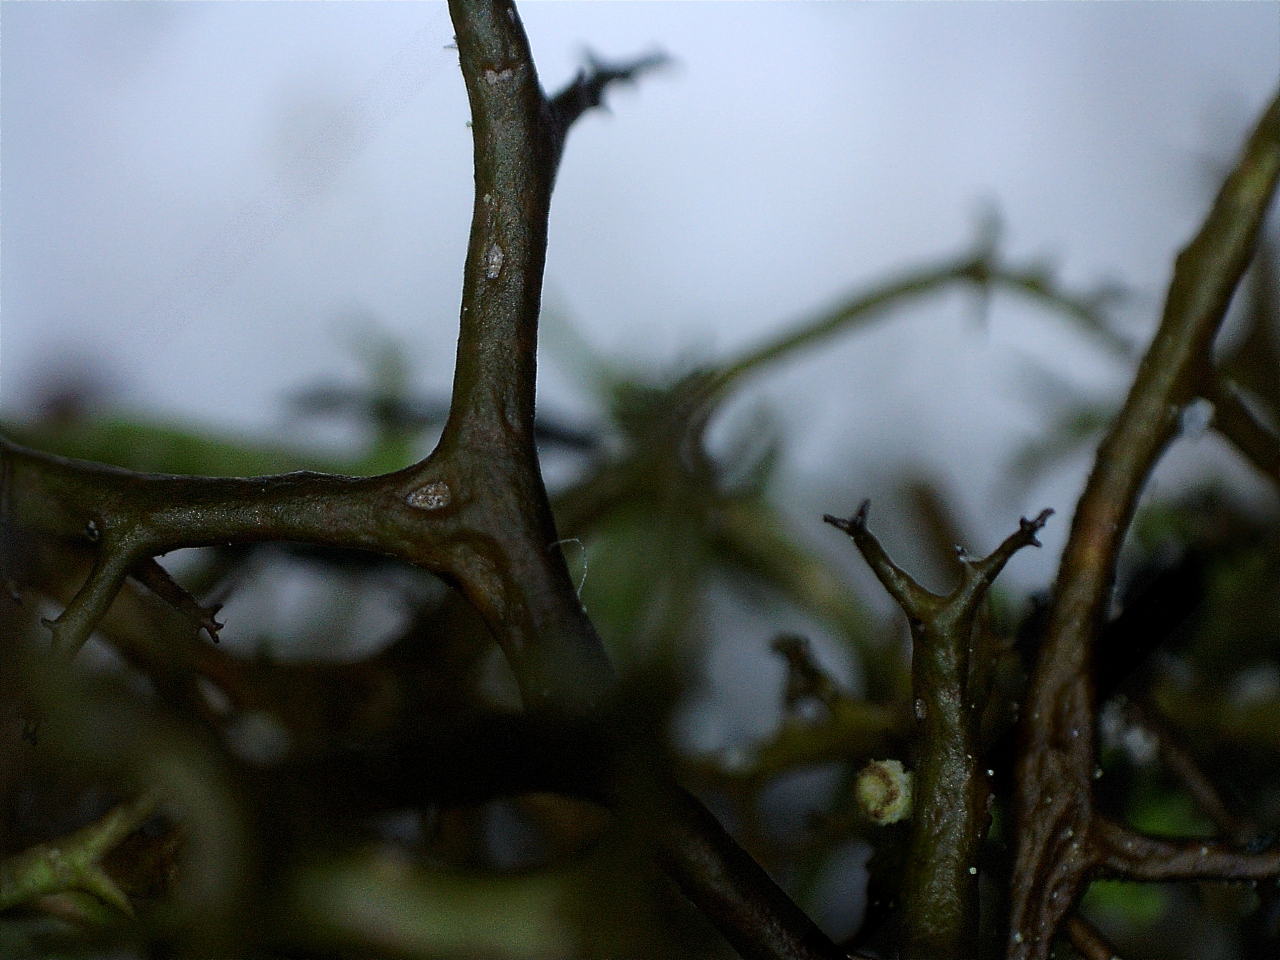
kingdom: Fungi
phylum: Ascomycota
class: Lecanoromycetes
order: Lecanorales
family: Parmeliaceae
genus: Cetraria
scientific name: Cetraria aculeata
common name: grubet tjørnelav
